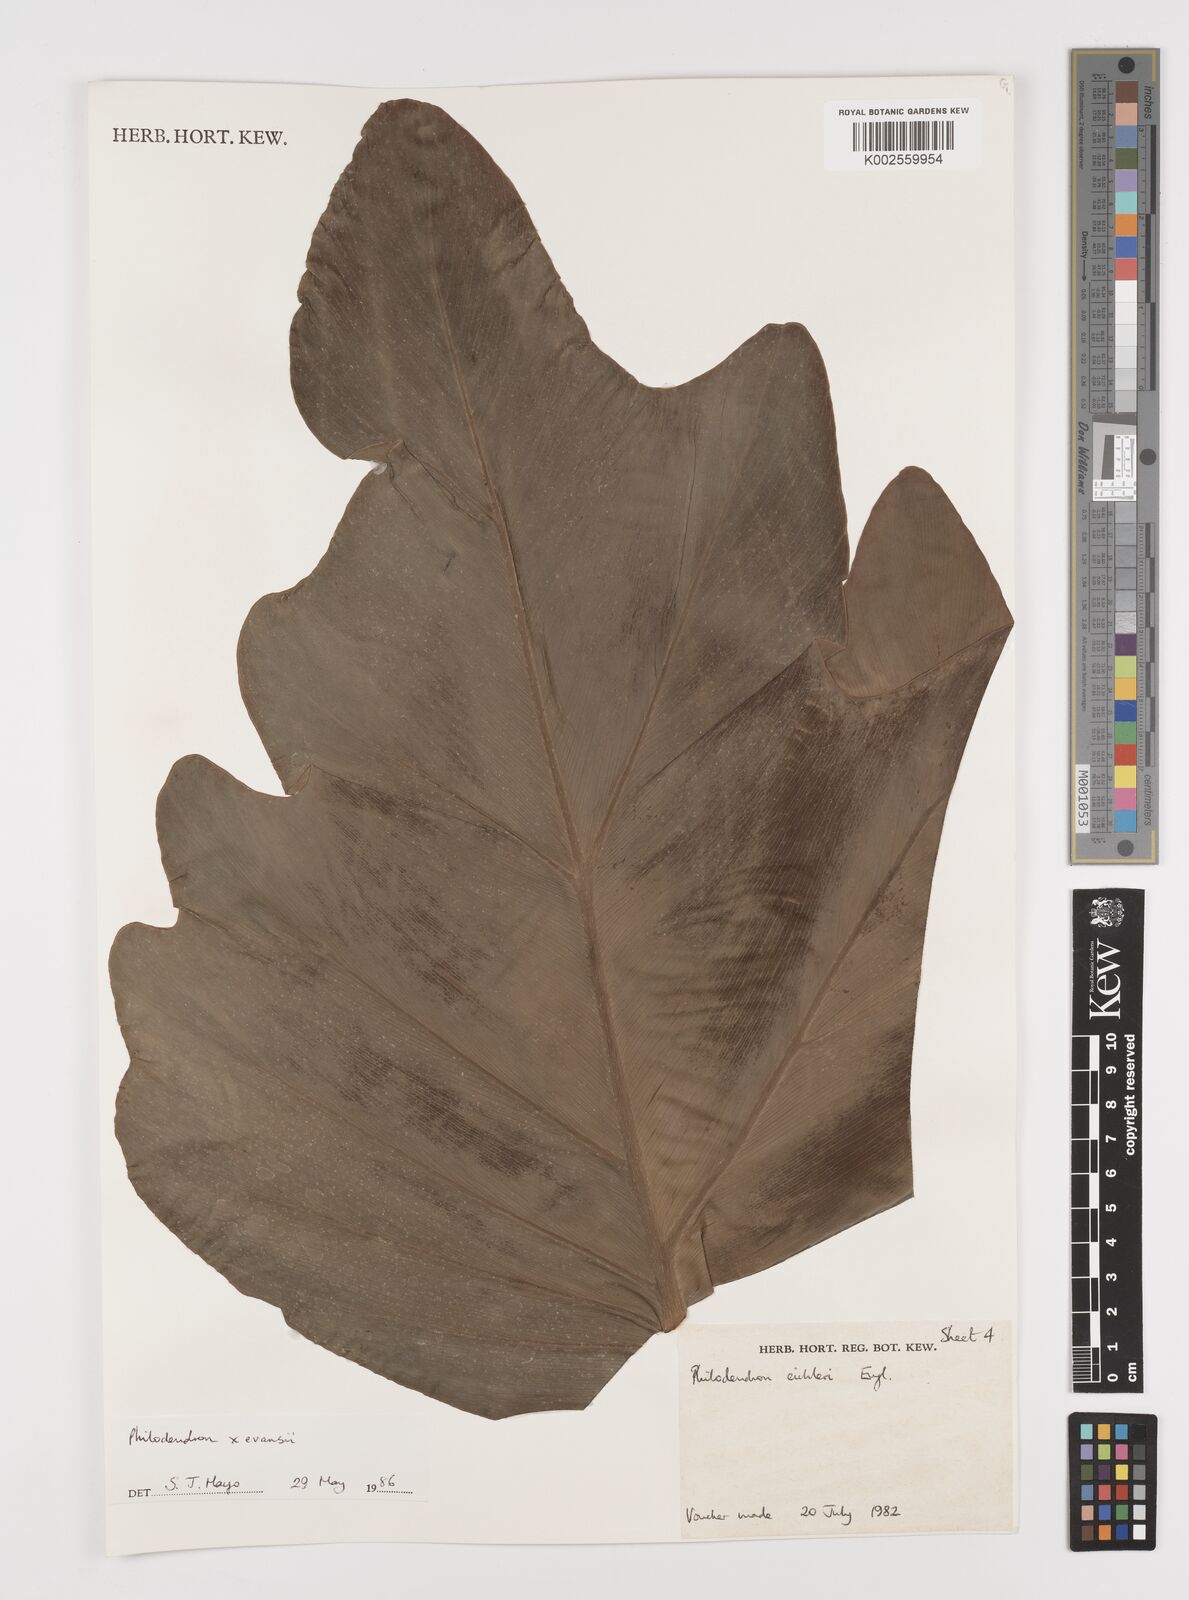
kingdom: Plantae
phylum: Tracheophyta
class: Liliopsida
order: Alismatales
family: Araceae
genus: Philodendron
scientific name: Philodendron
